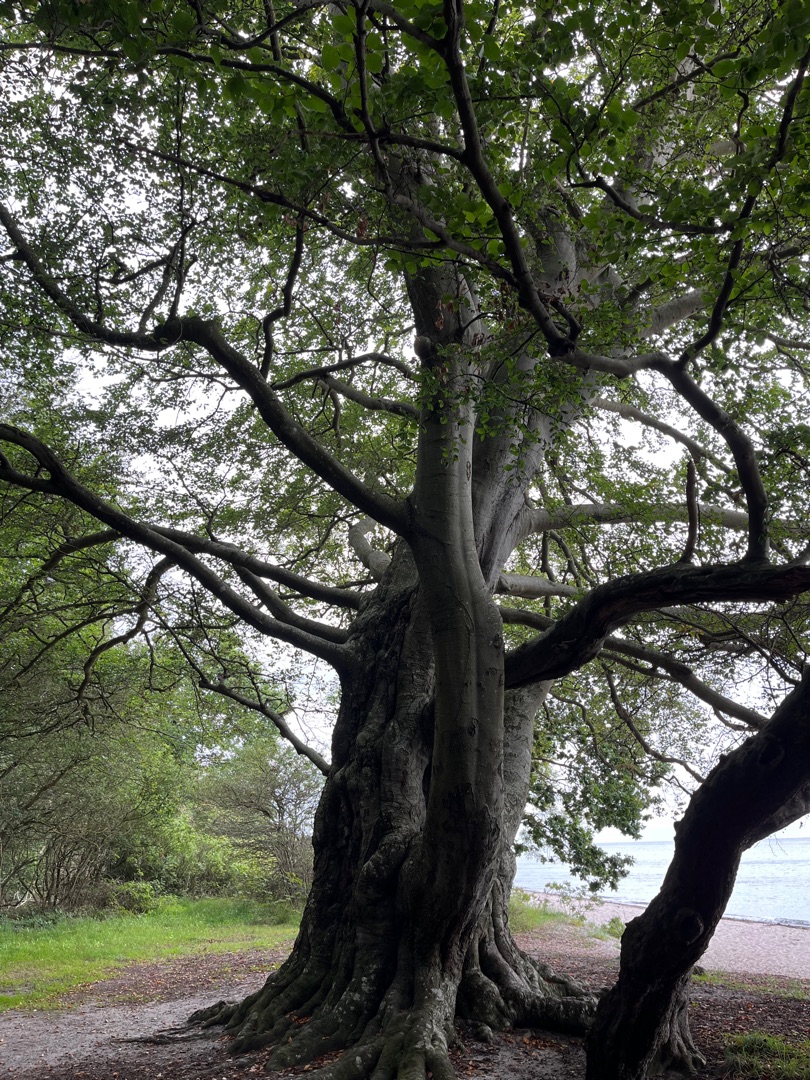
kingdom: Plantae
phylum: Tracheophyta
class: Magnoliopsida
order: Fagales
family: Fagaceae
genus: Fagus
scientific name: Fagus sylvatica
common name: Bøg
